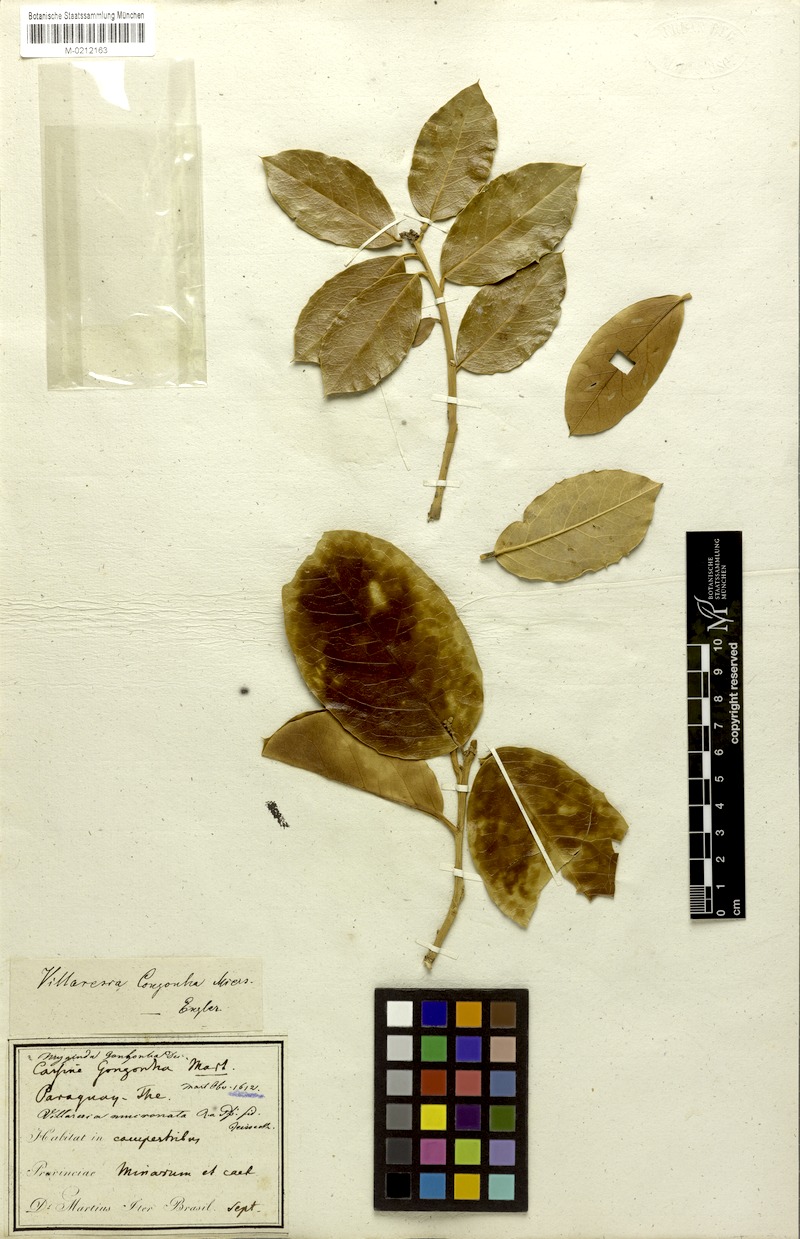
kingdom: Plantae
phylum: Tracheophyta
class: Magnoliopsida
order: Cardiopteridales
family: Cardiopteridaceae
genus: Citronella
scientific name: Citronella mucronata
